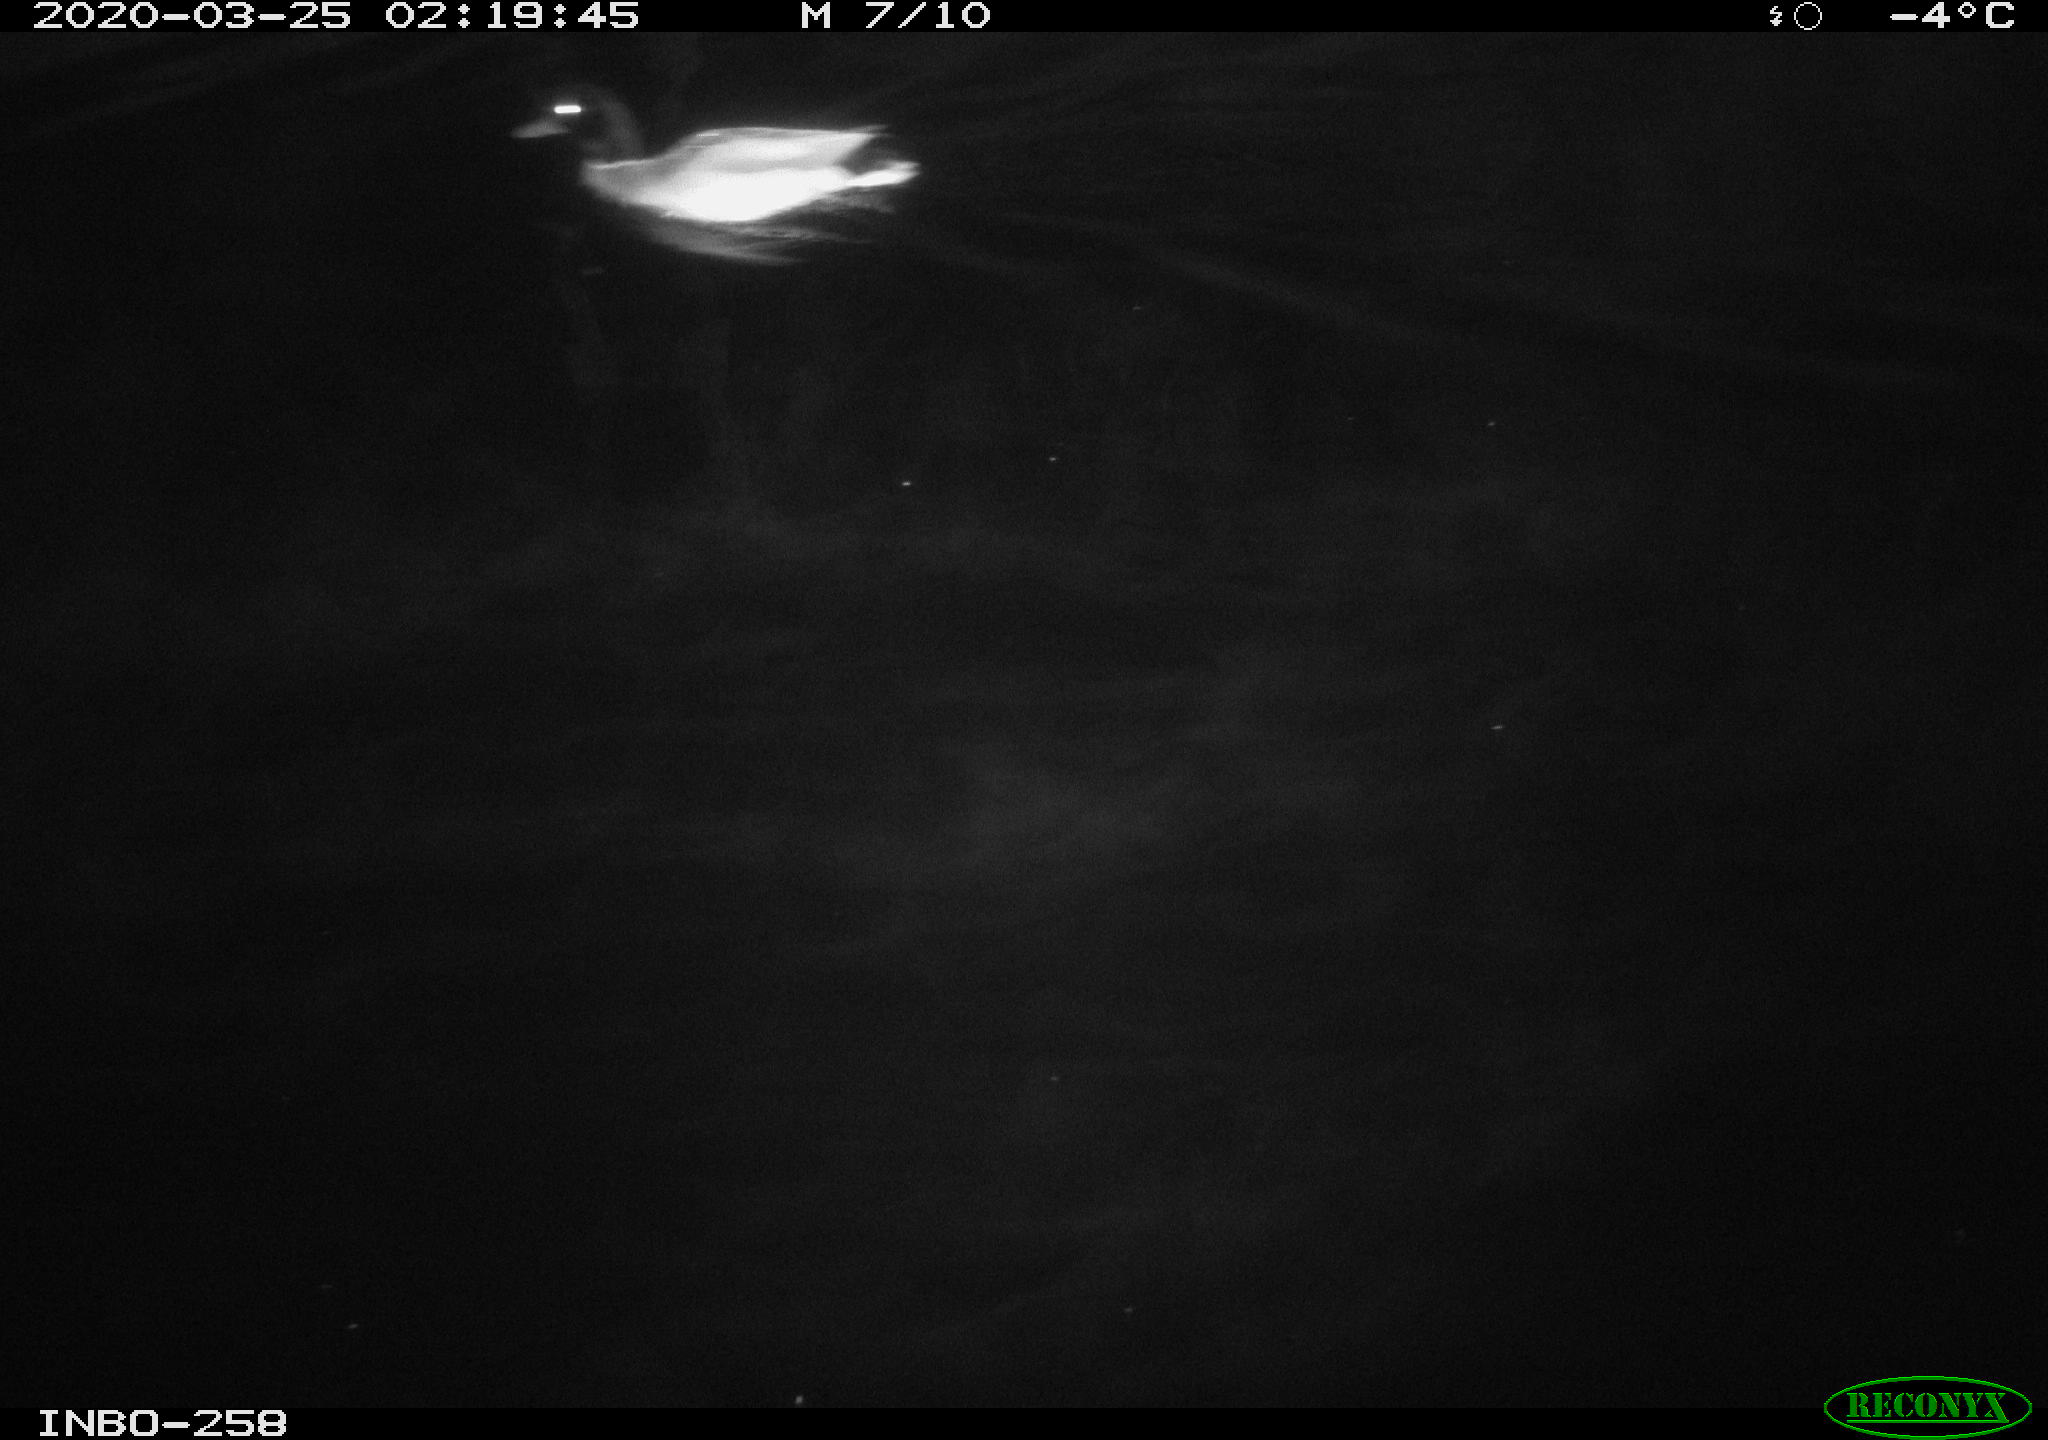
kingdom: Animalia
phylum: Chordata
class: Aves
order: Anseriformes
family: Anatidae
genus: Anas
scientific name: Anas platyrhynchos
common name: Mallard
